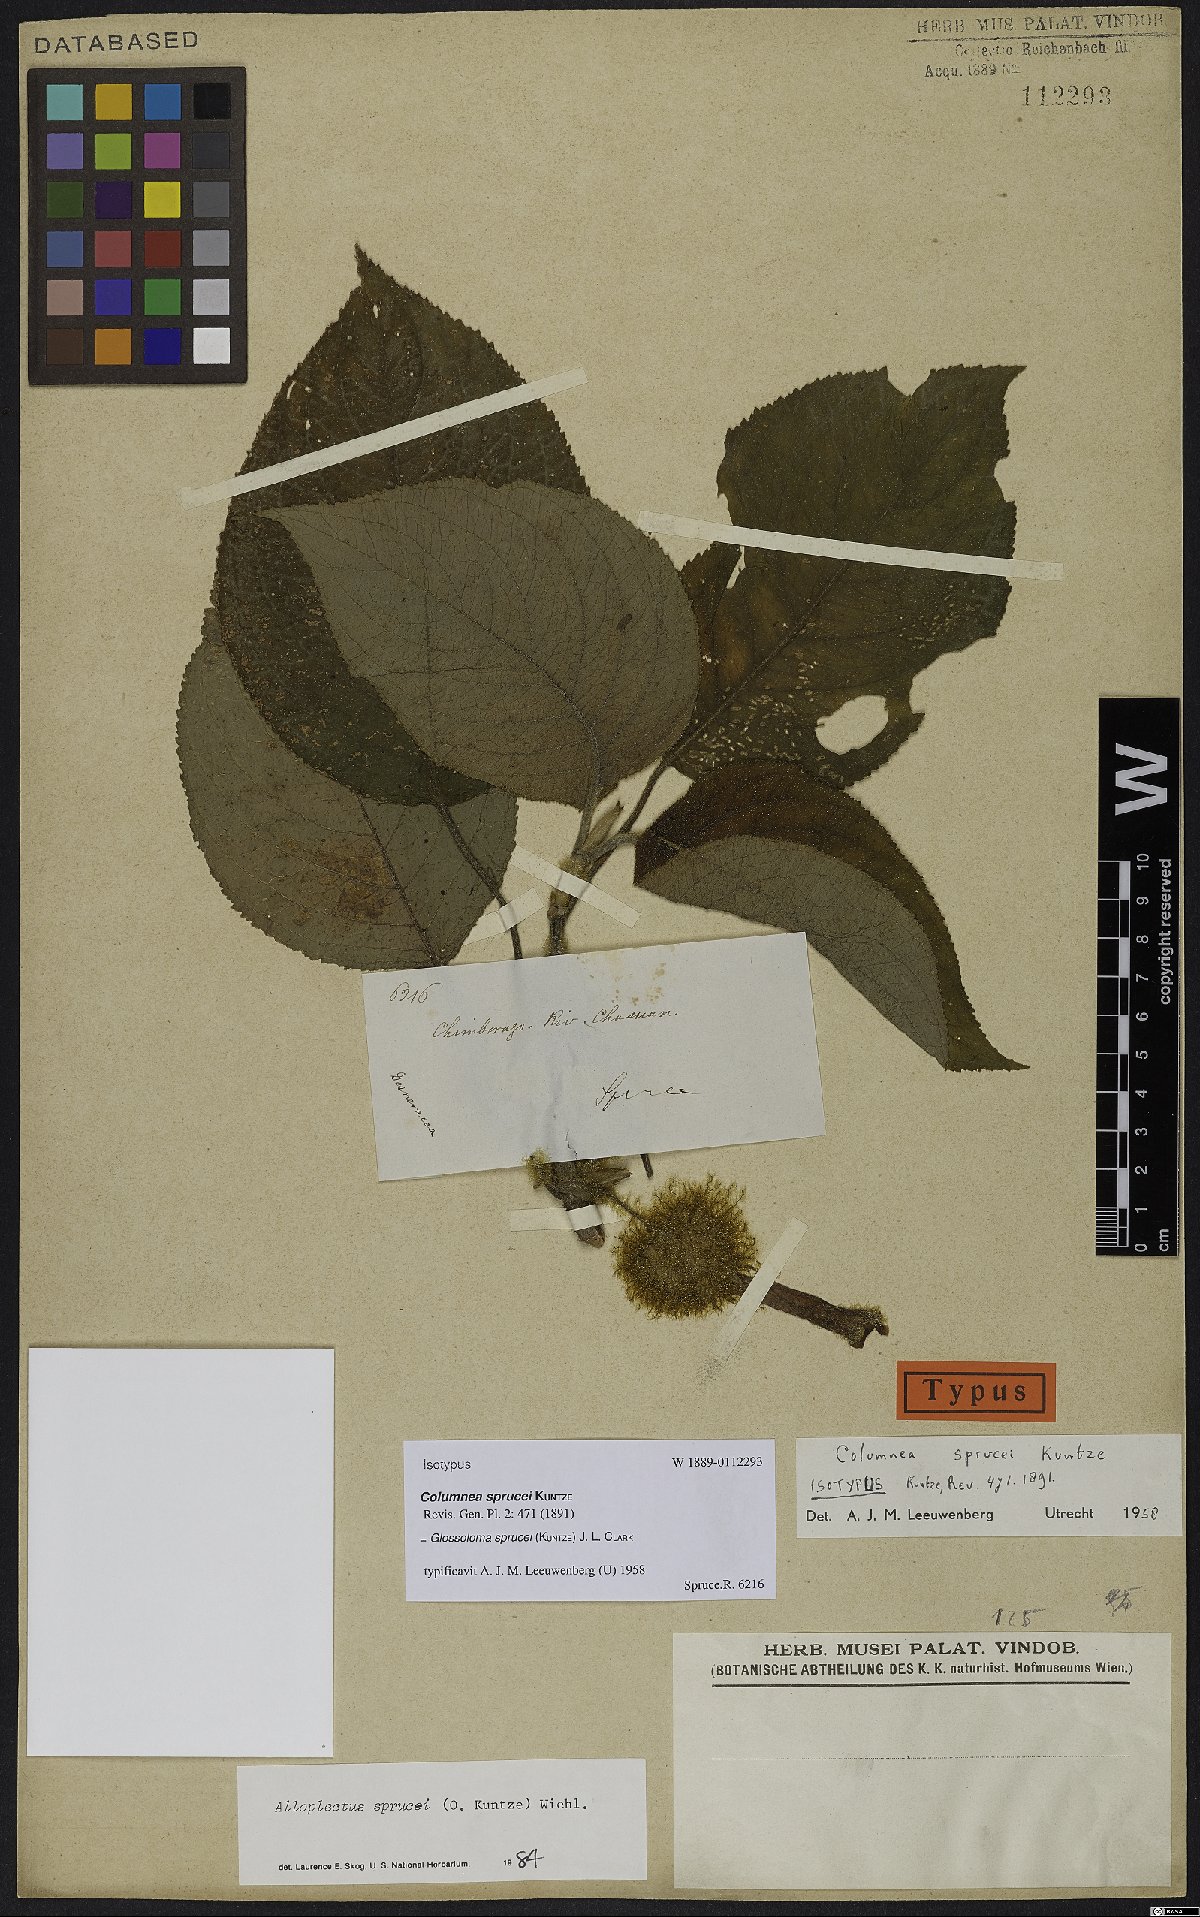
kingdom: Plantae
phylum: Tracheophyta
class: Magnoliopsida
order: Lamiales
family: Gesneriaceae
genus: Glossoloma
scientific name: Glossoloma sprucei
